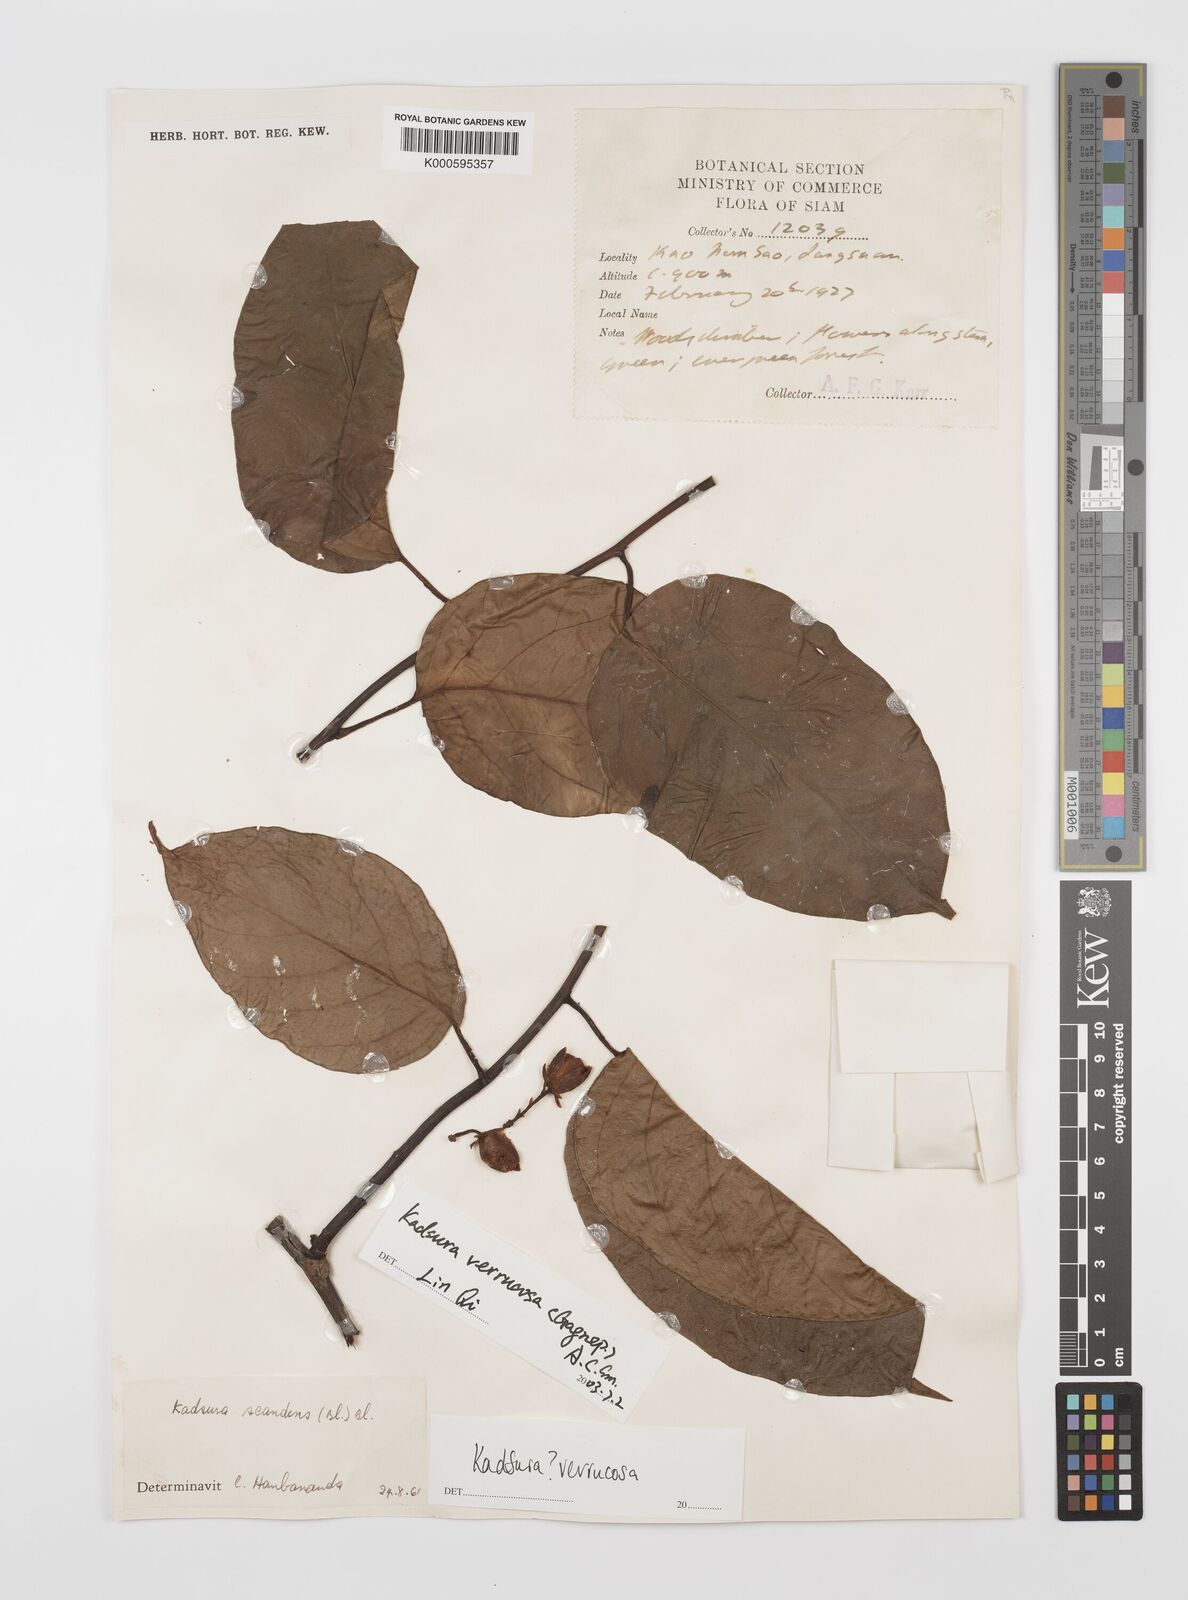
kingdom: Plantae
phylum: Tracheophyta
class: Magnoliopsida
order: Austrobaileyales
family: Schisandraceae
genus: Kadsura
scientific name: Kadsura verrucosa
